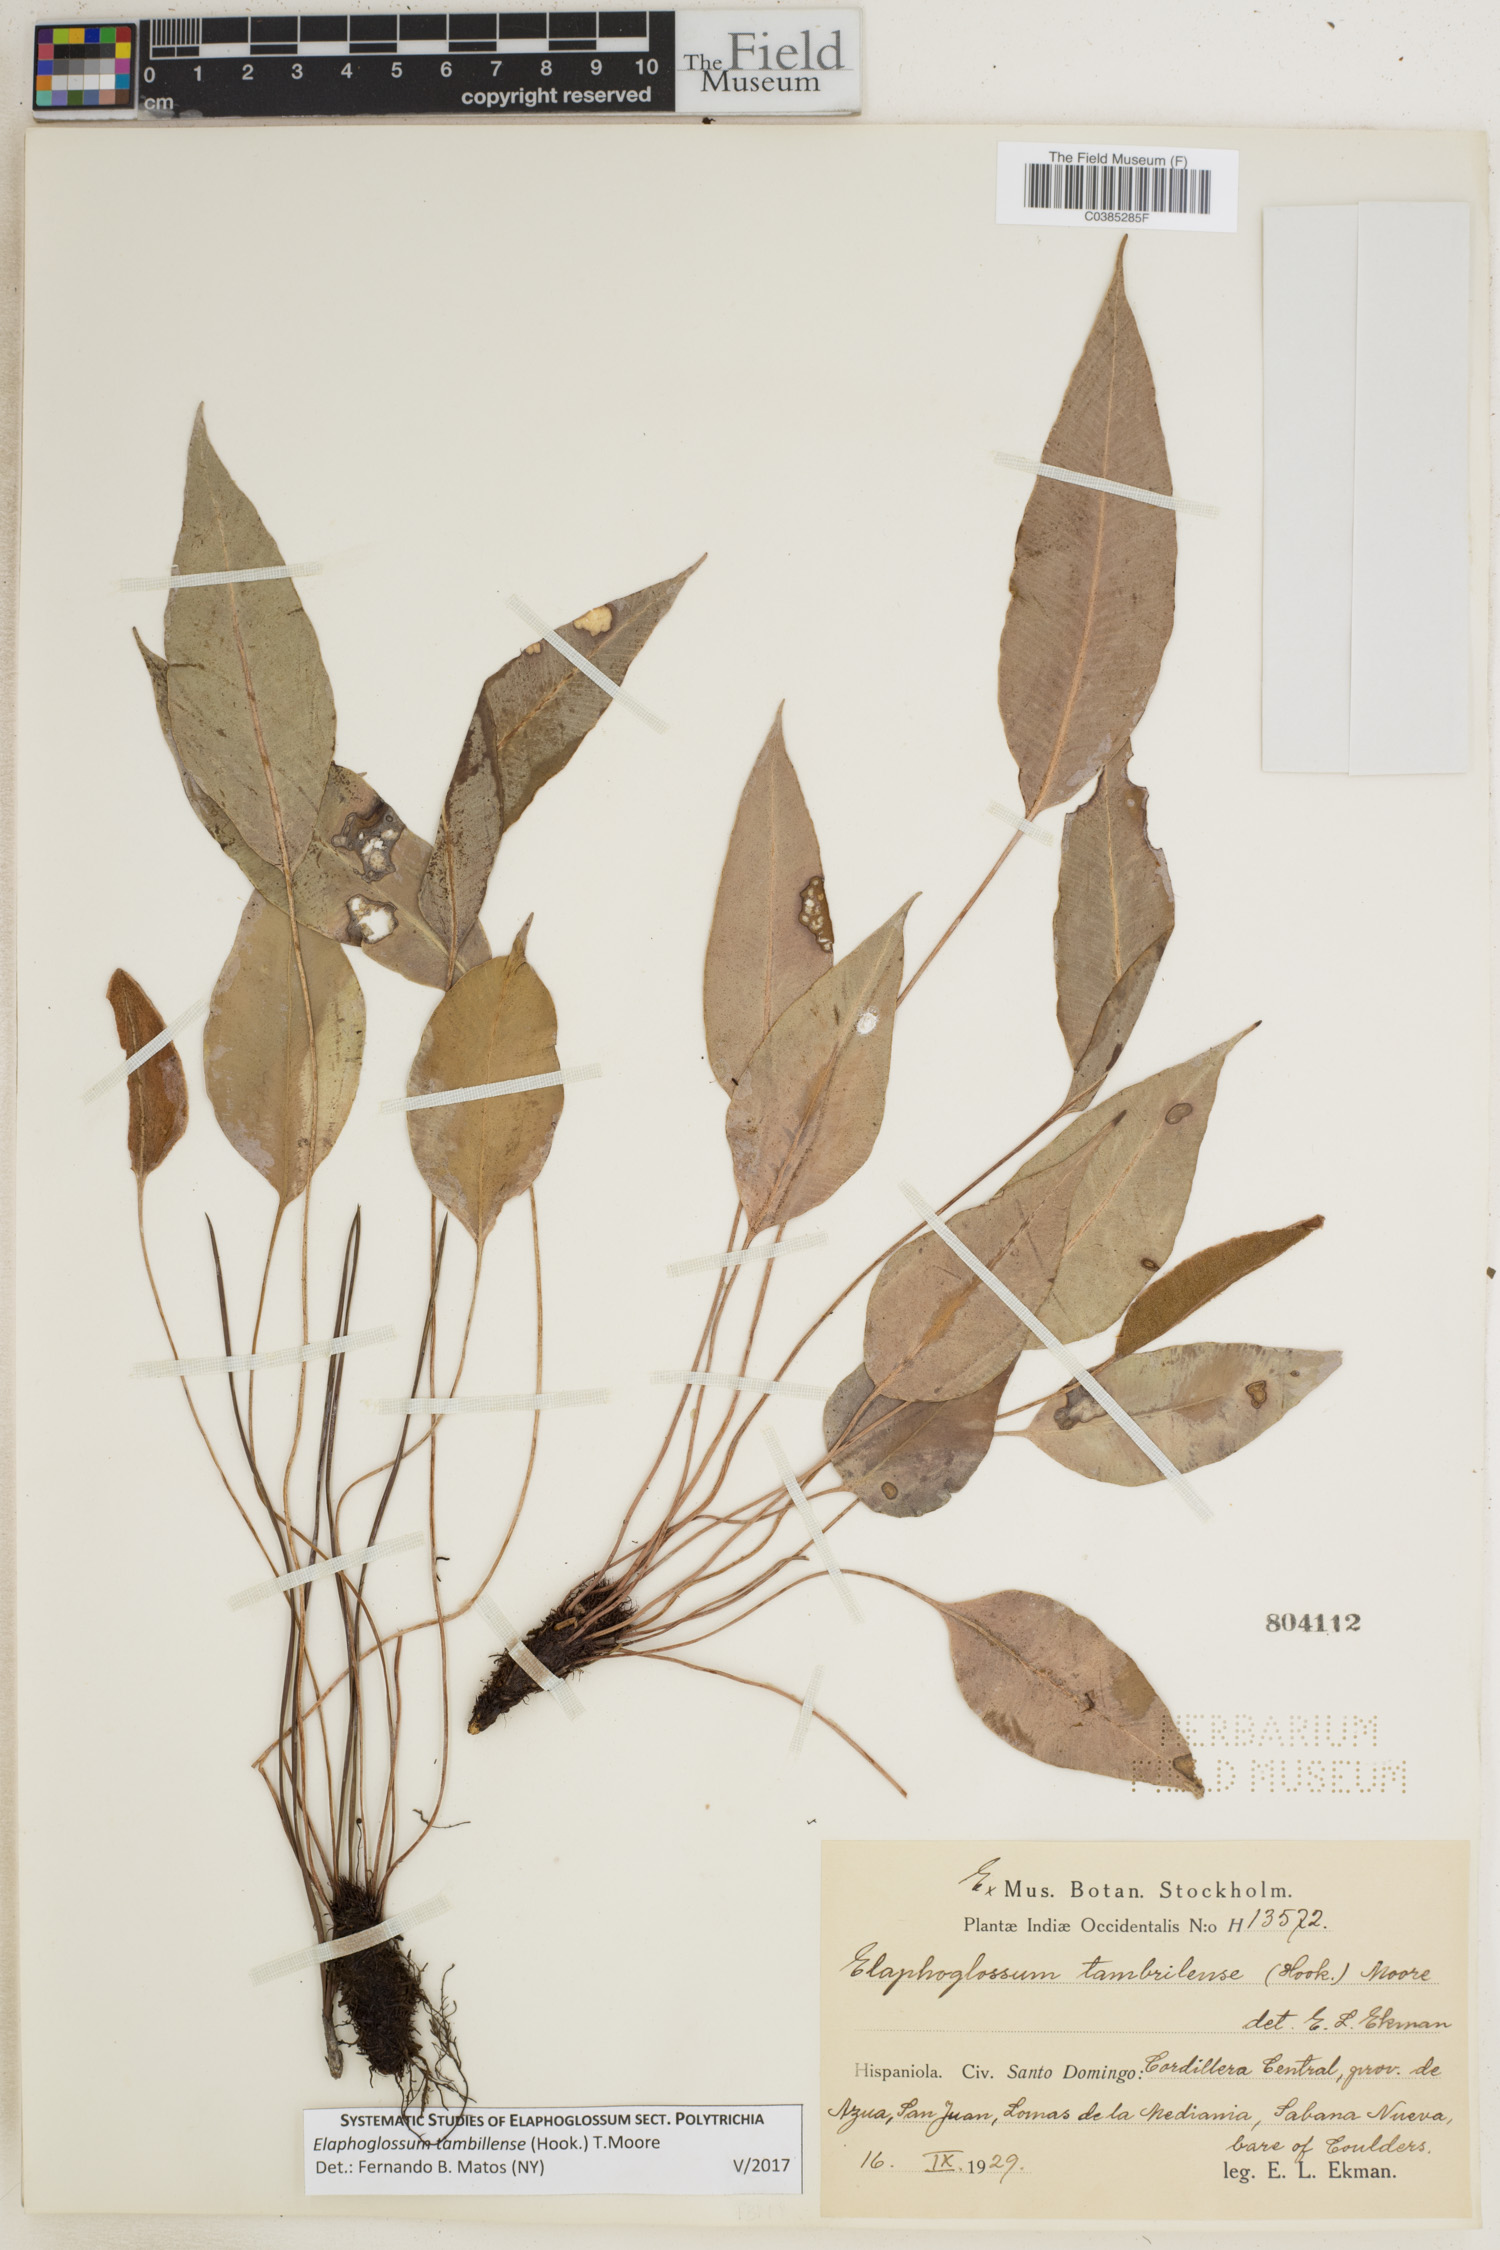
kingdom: Plantae
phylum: Tracheophyta
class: Polypodiopsida
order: Polypodiales
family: Dryopteridaceae
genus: Elaphoglossum
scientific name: Elaphoglossum tambillense
